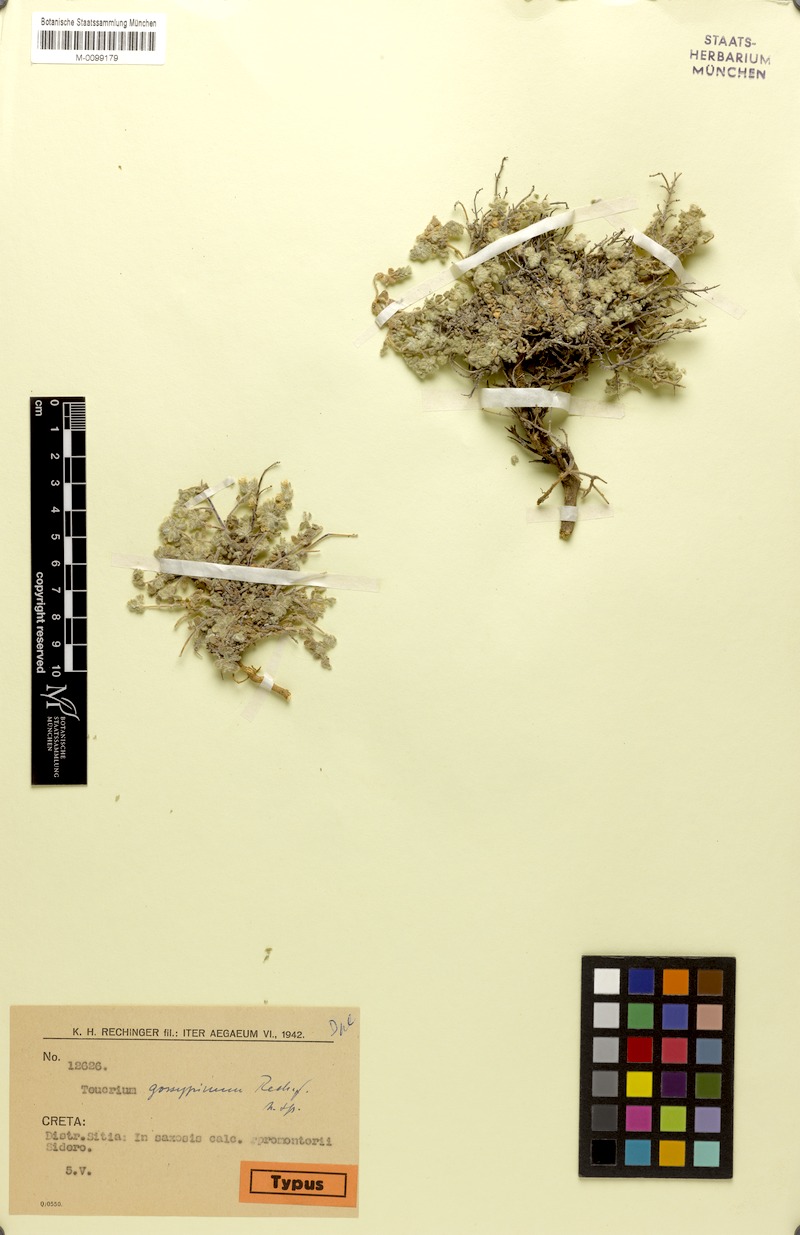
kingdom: Plantae
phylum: Tracheophyta
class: Magnoliopsida
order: Lamiales
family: Lamiaceae
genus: Teucrium
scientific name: Teucrium alpestre
